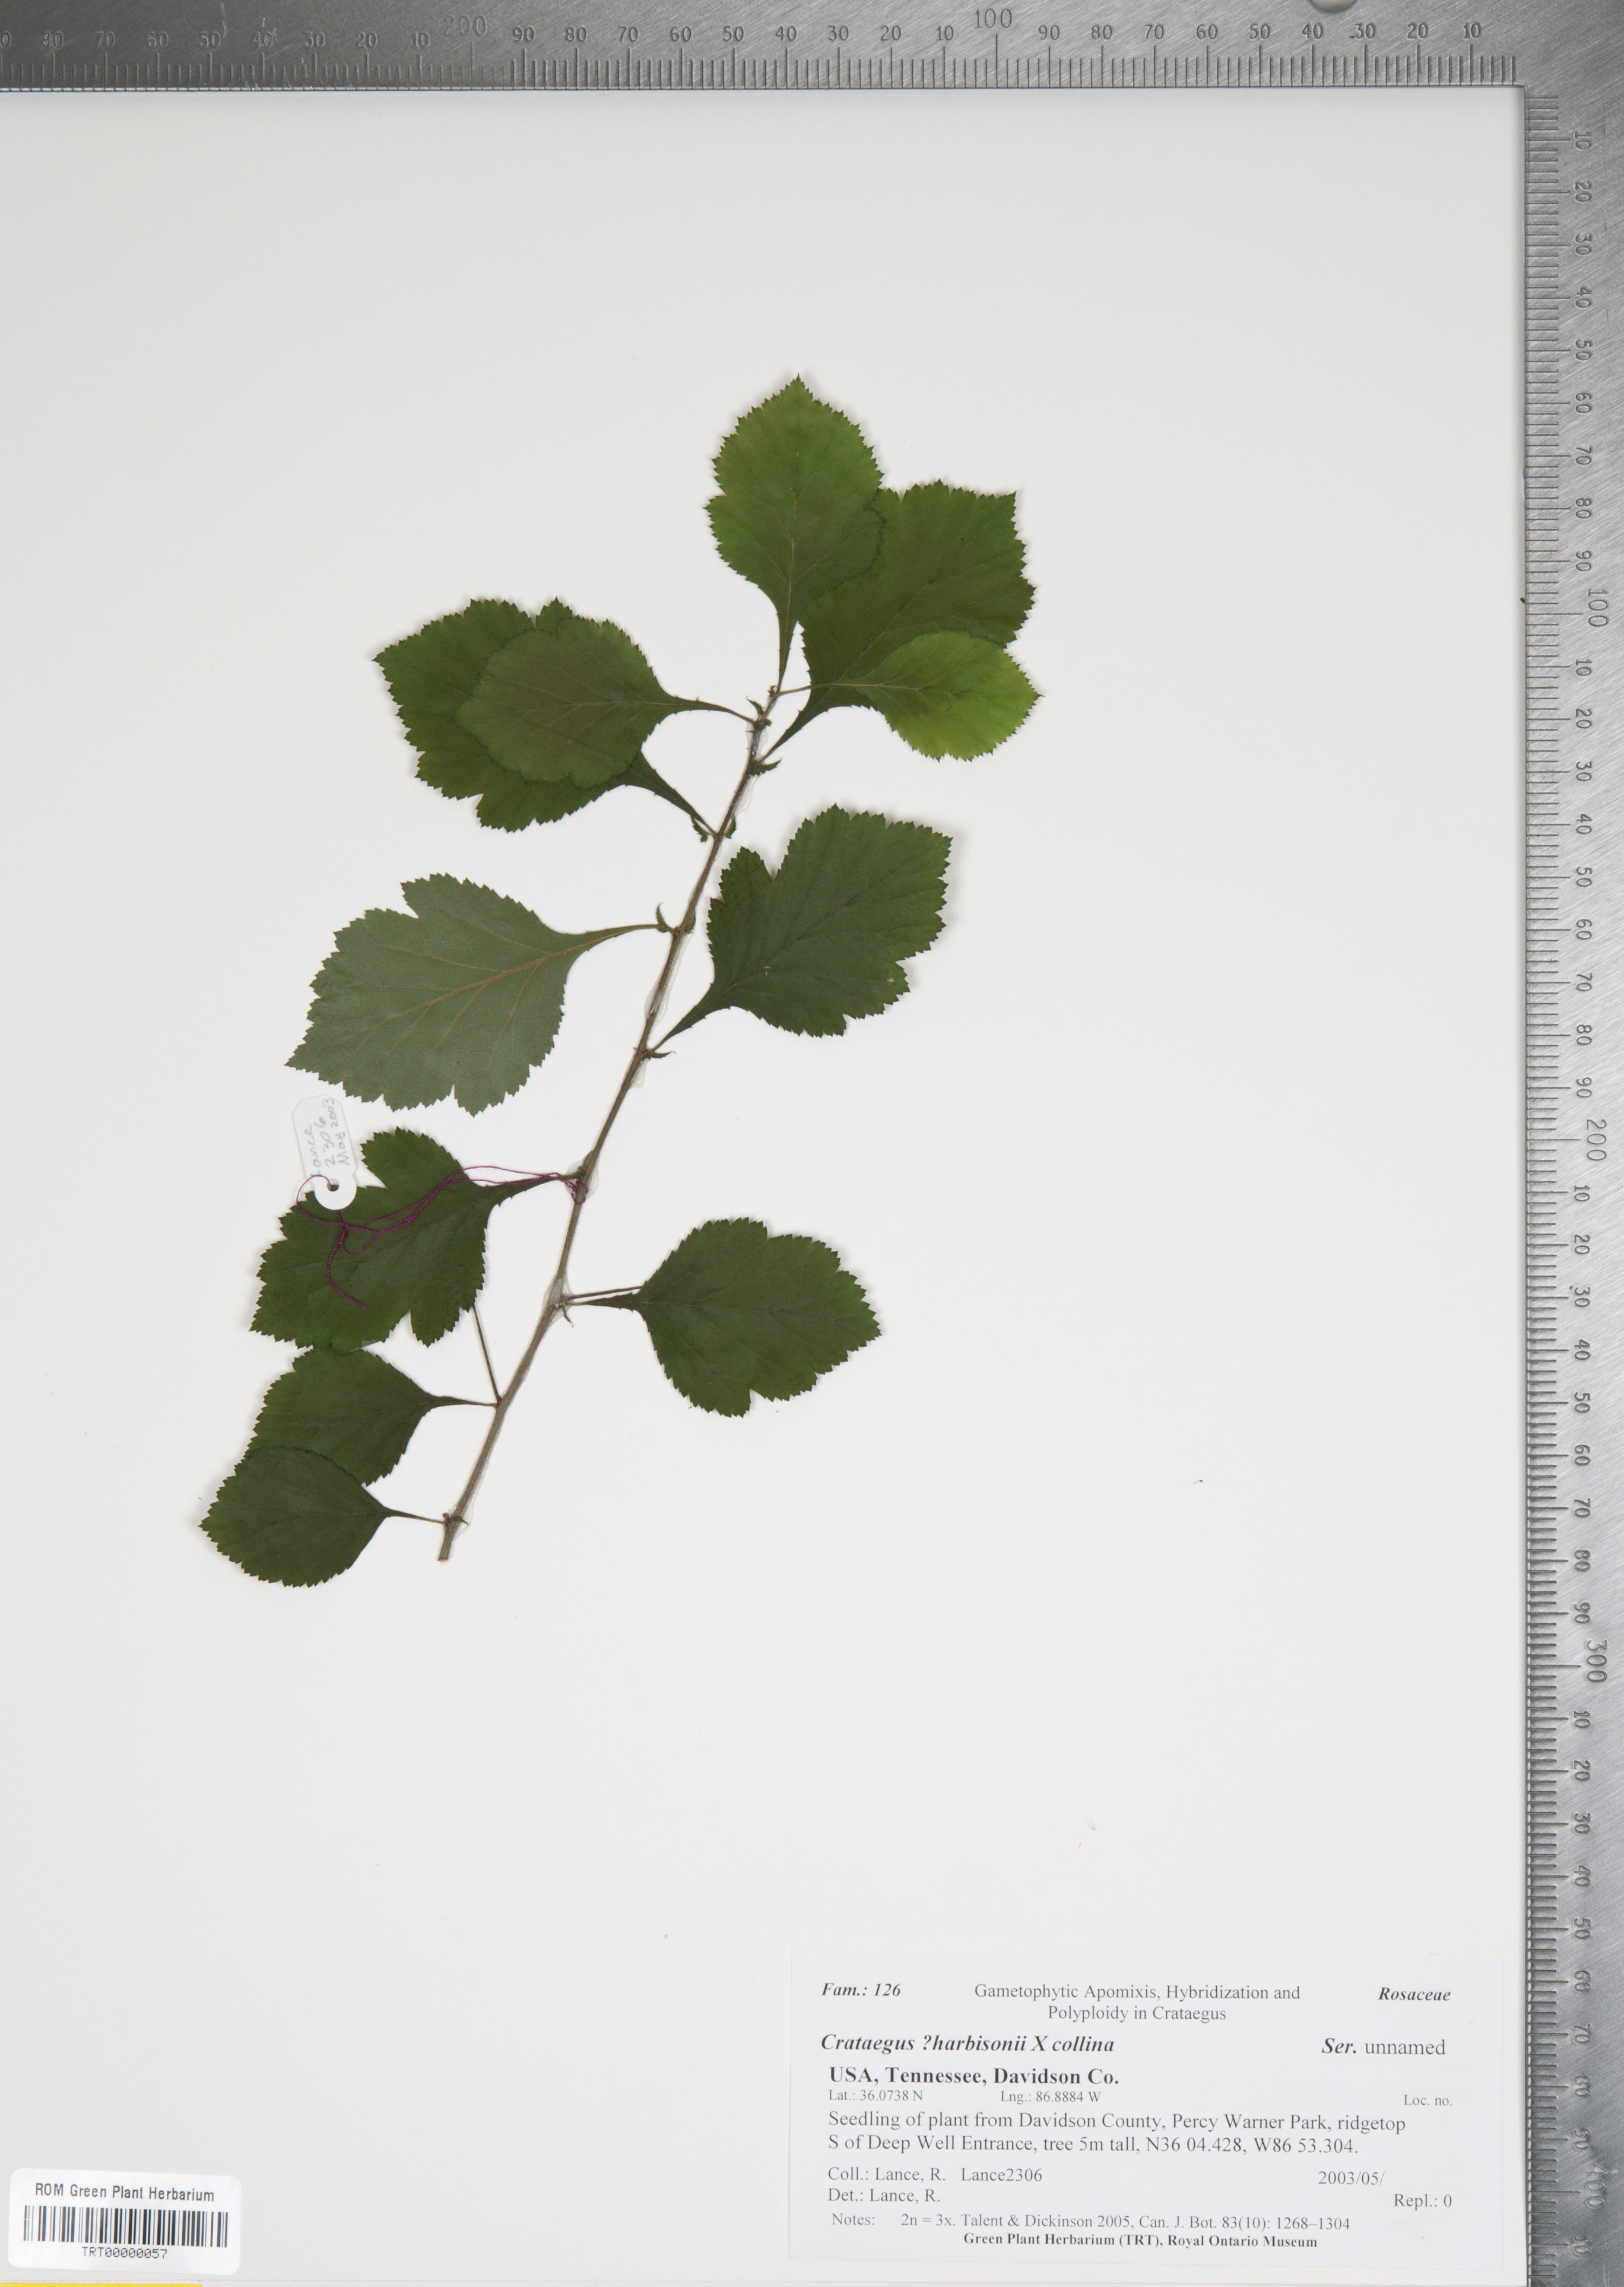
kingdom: Plantae
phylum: Tracheophyta
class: Magnoliopsida
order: Rosales
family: Rosaceae
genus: Crataegus
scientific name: Crataegus
